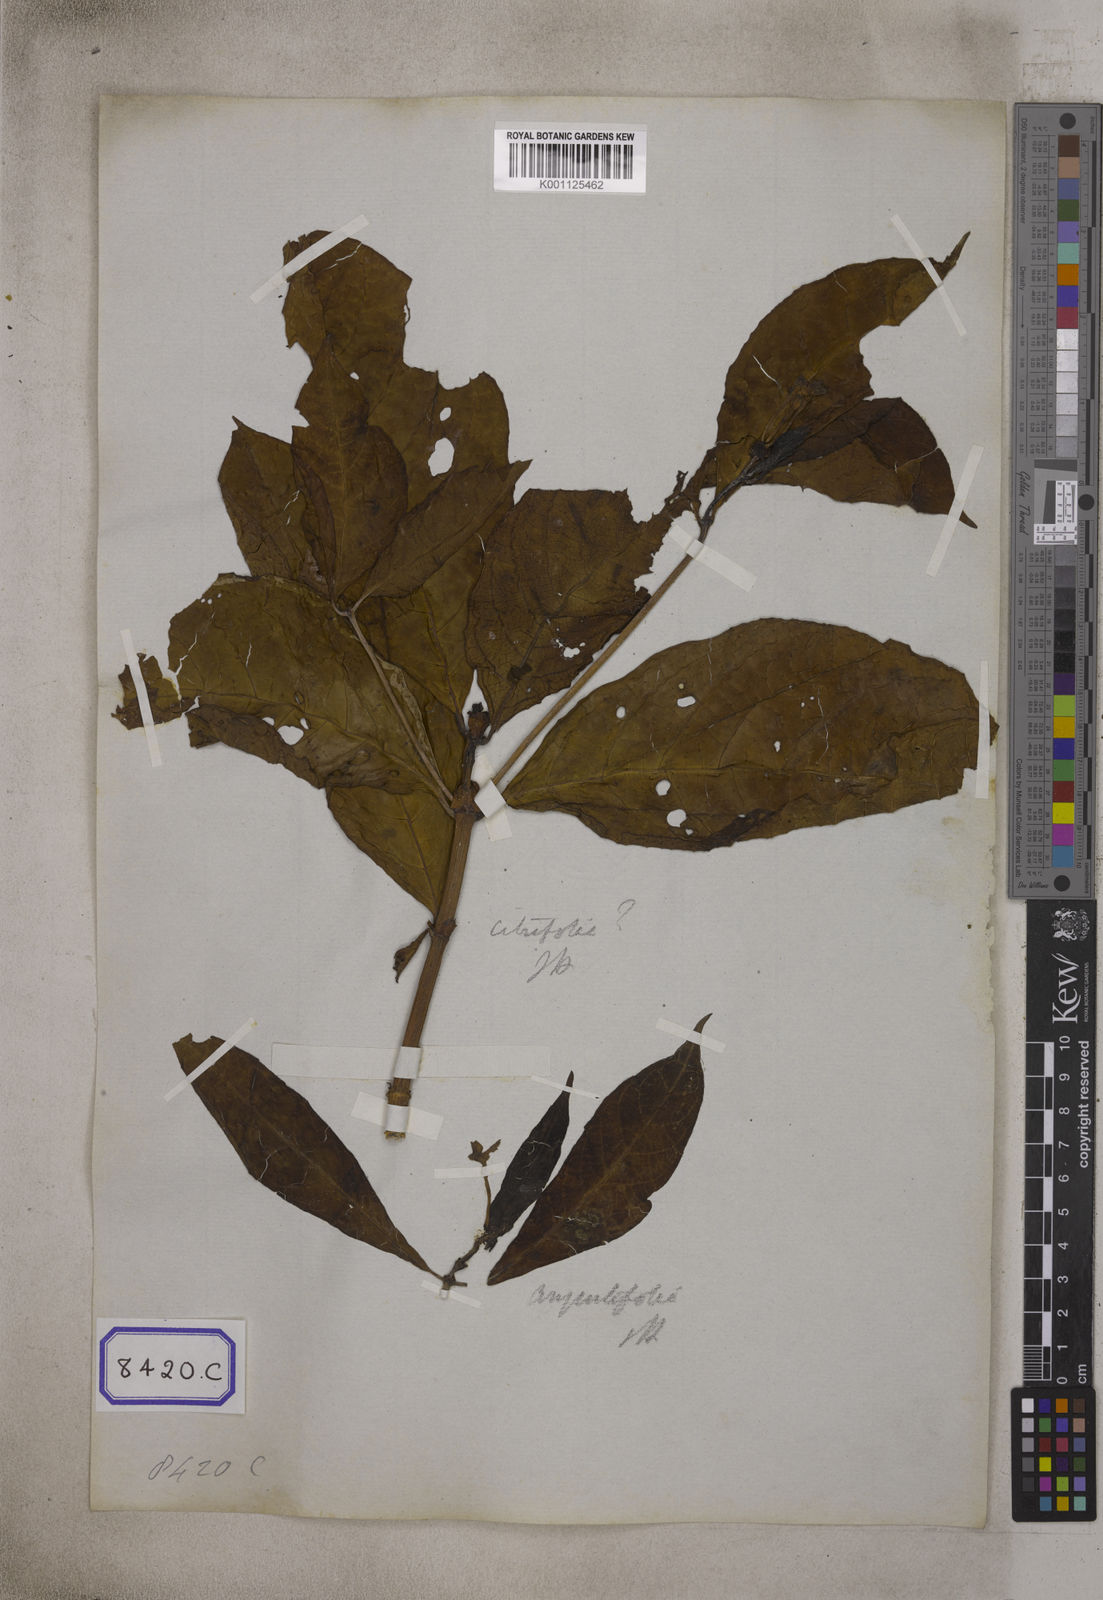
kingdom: Plantae
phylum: Tracheophyta
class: Magnoliopsida
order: Gentianales
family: Rubiaceae
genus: Morinda
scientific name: Morinda angustifolia
